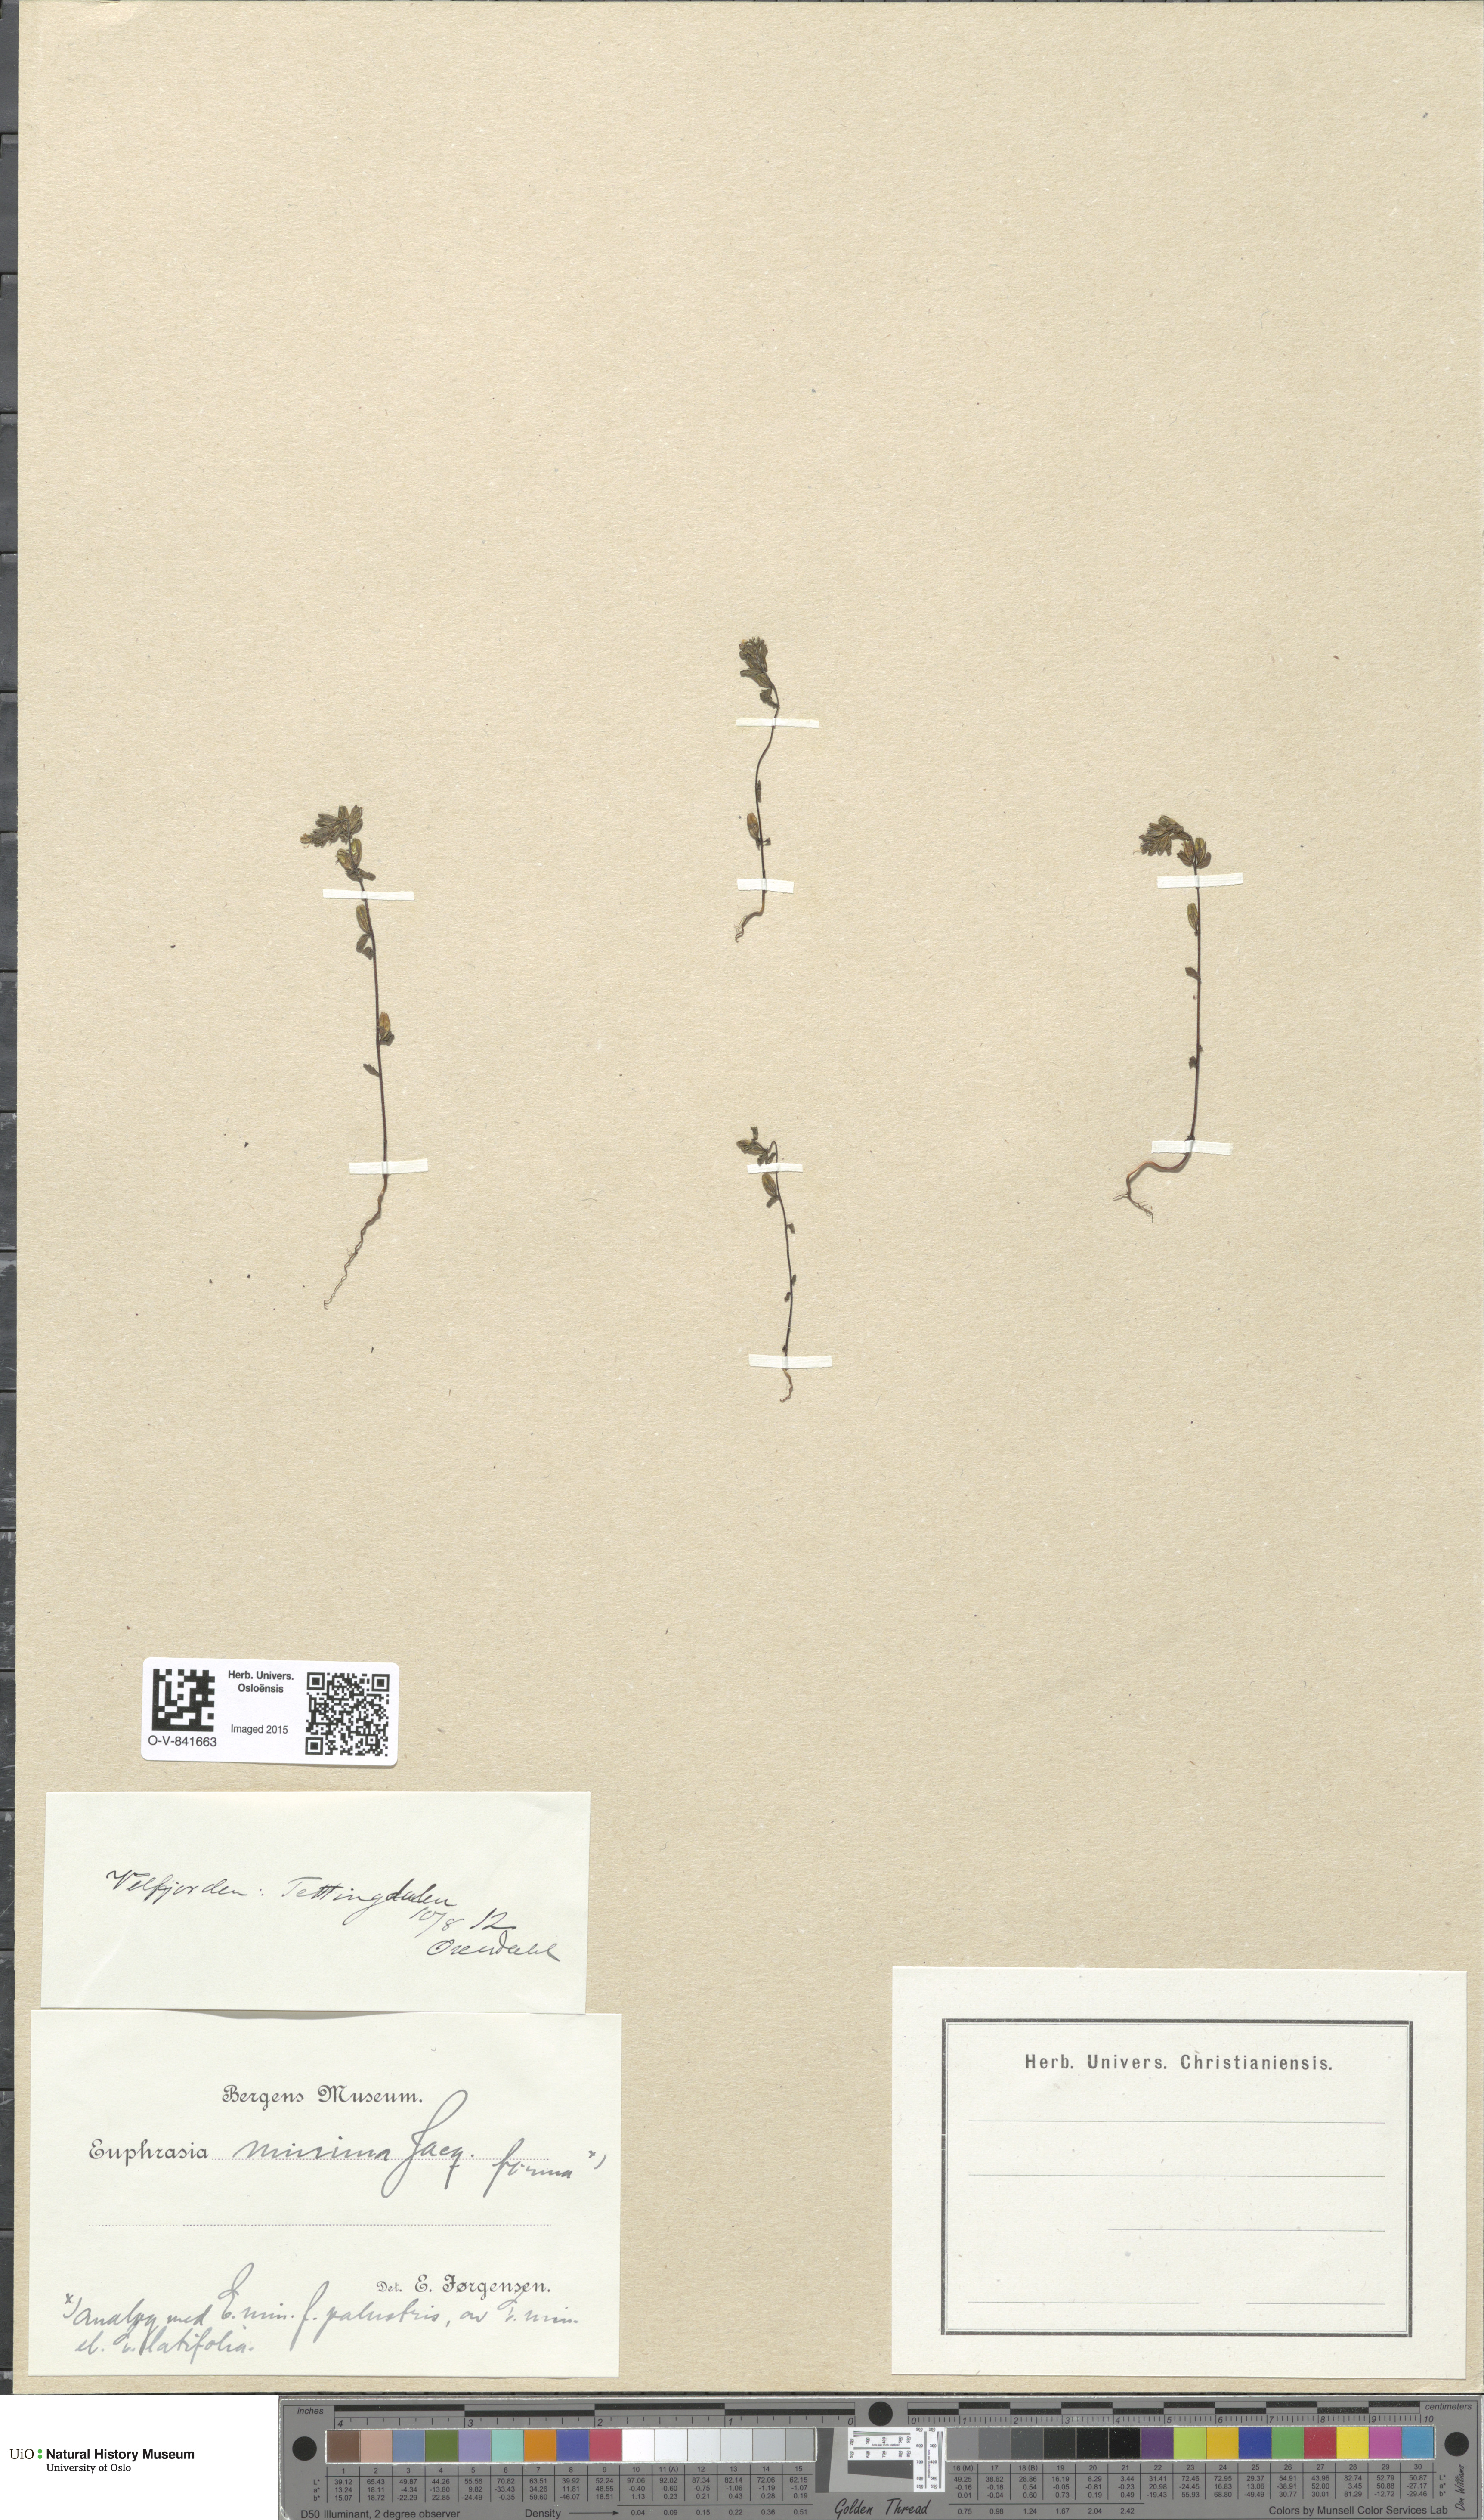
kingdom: Plantae
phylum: Tracheophyta
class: Magnoliopsida
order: Lamiales
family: Orobanchaceae
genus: Euphrasia
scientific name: Euphrasia wettsteinii
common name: Wettstein's eyebright
